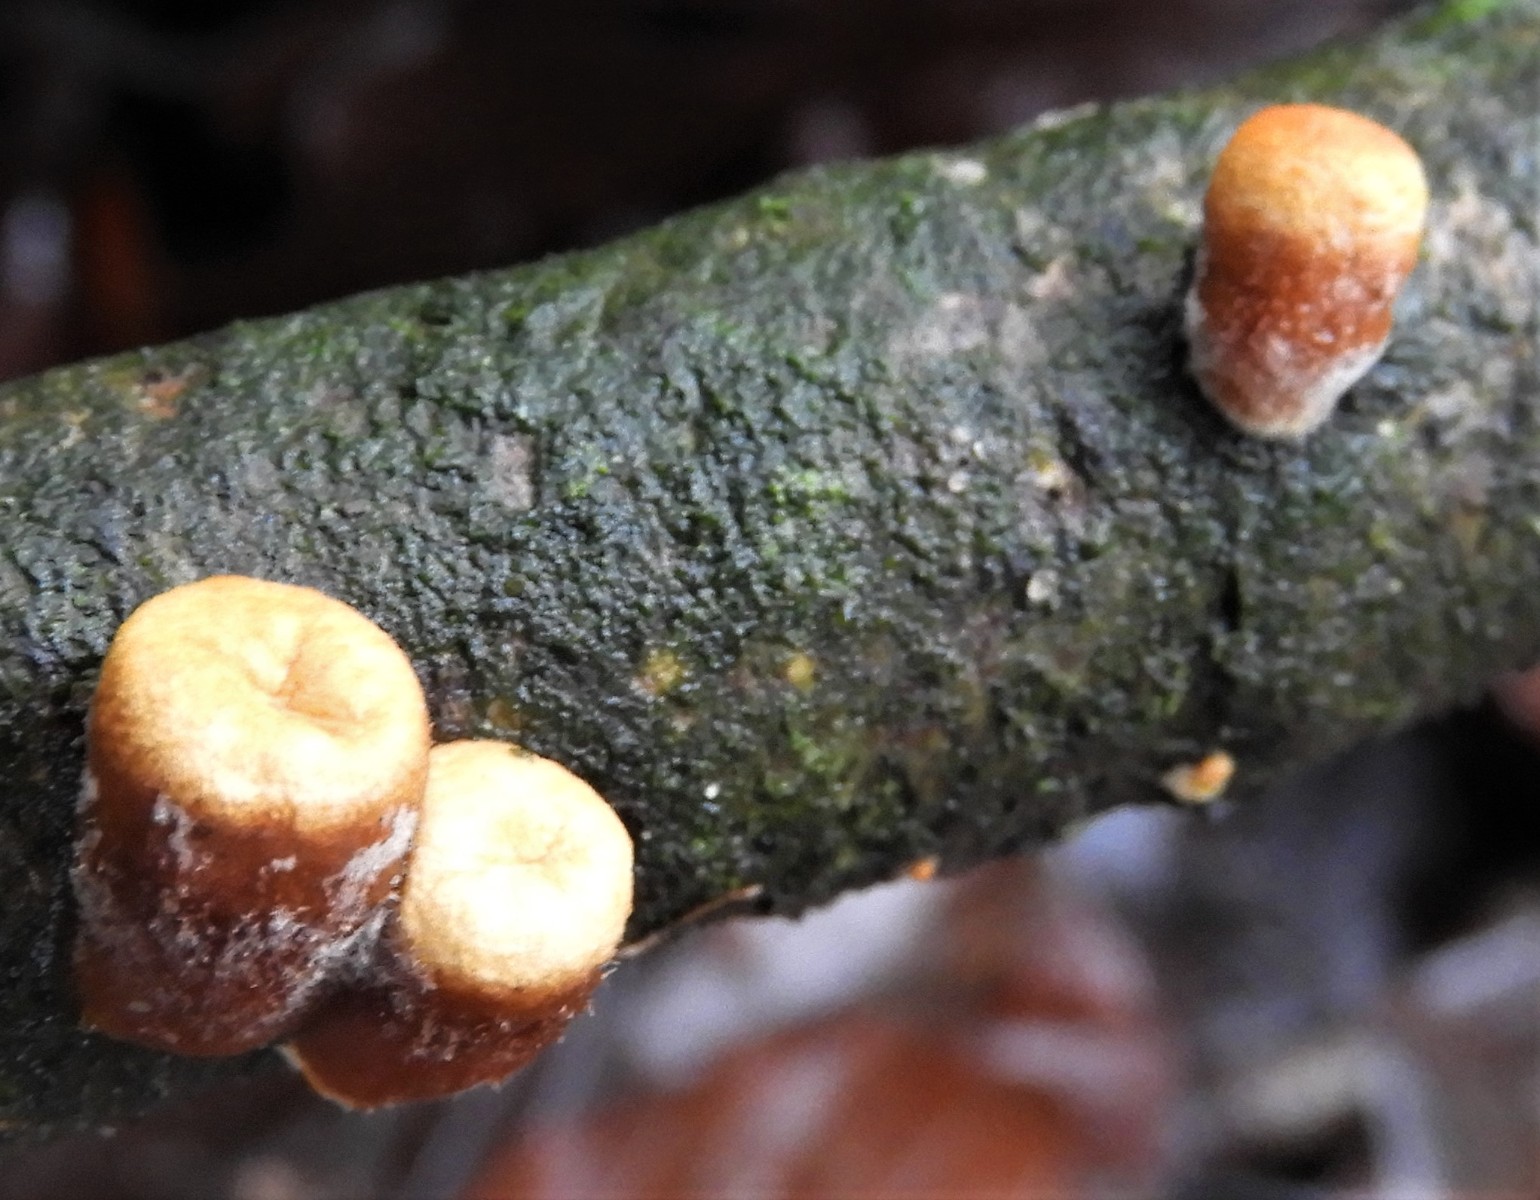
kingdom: Fungi
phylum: Basidiomycota
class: Agaricomycetes
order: Agaricales
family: Nidulariaceae
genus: Crucibulum
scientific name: Crucibulum crucibuliforme
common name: krukkesvamp
